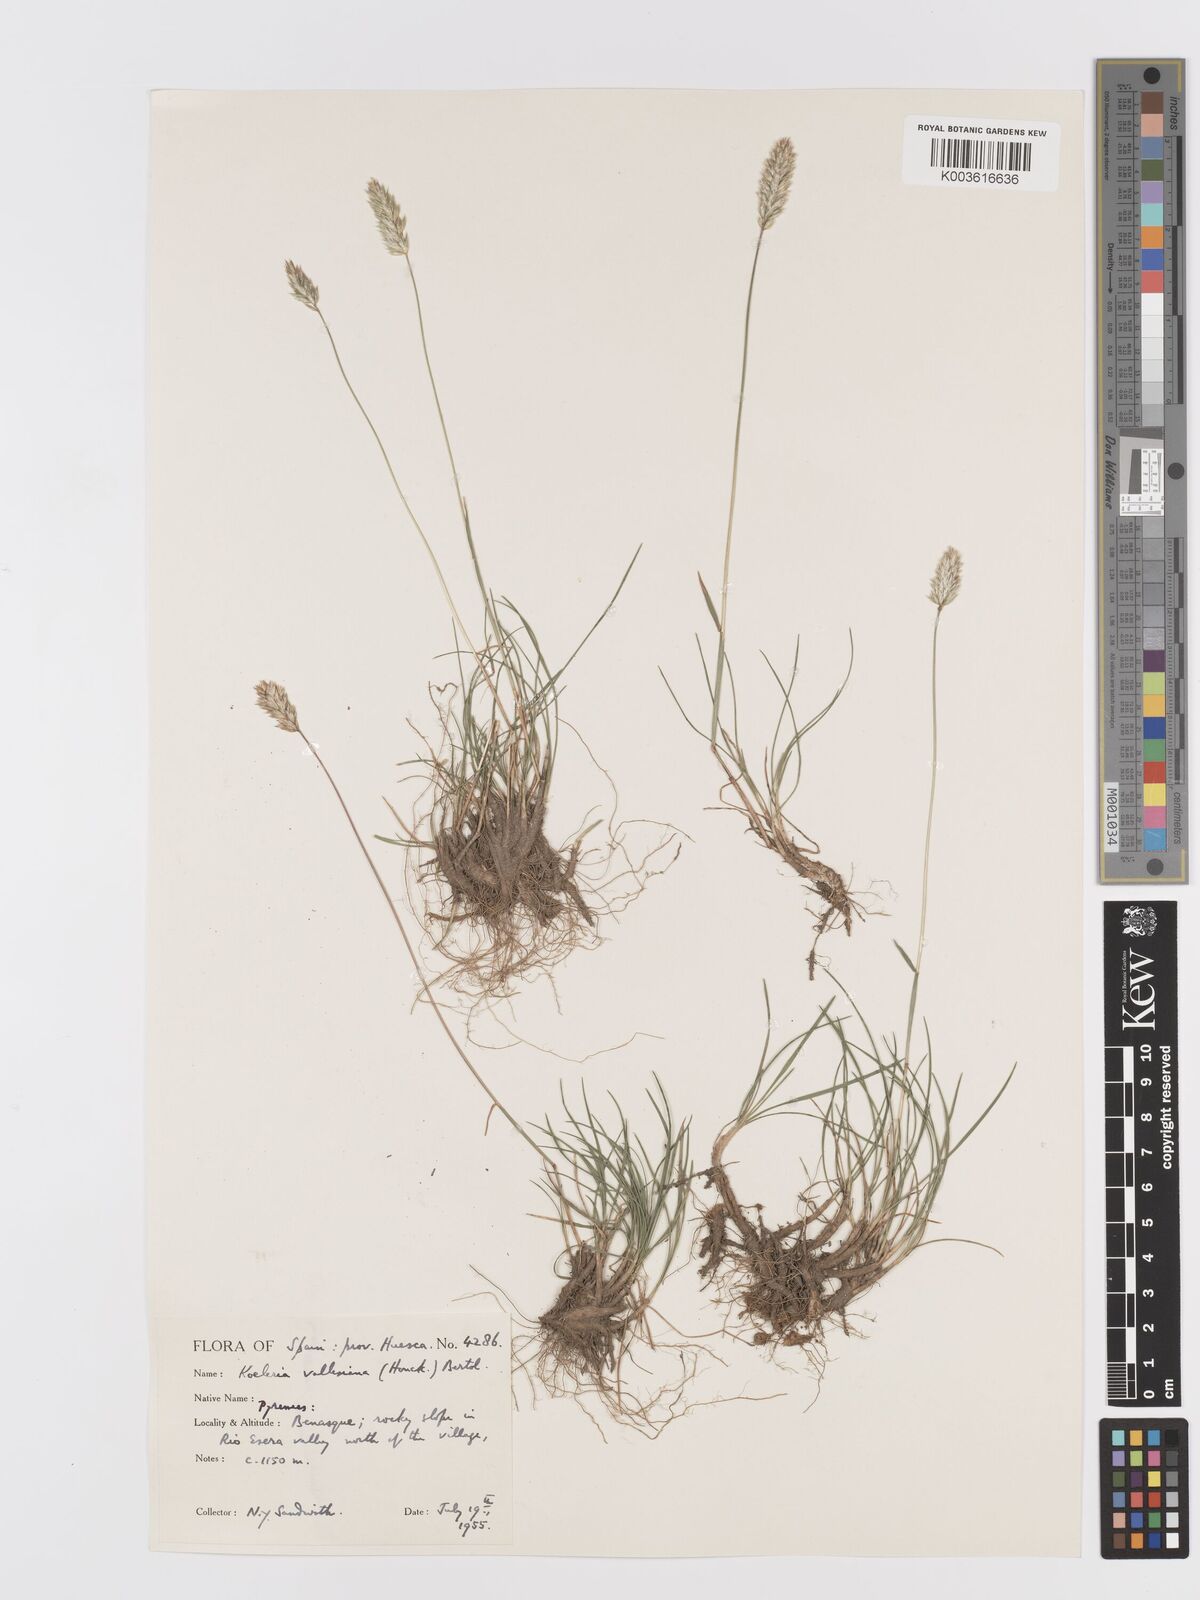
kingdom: Plantae
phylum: Tracheophyta
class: Liliopsida
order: Poales
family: Poaceae
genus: Koeleria
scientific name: Koeleria vallesiana
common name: Somerset hair-grass
